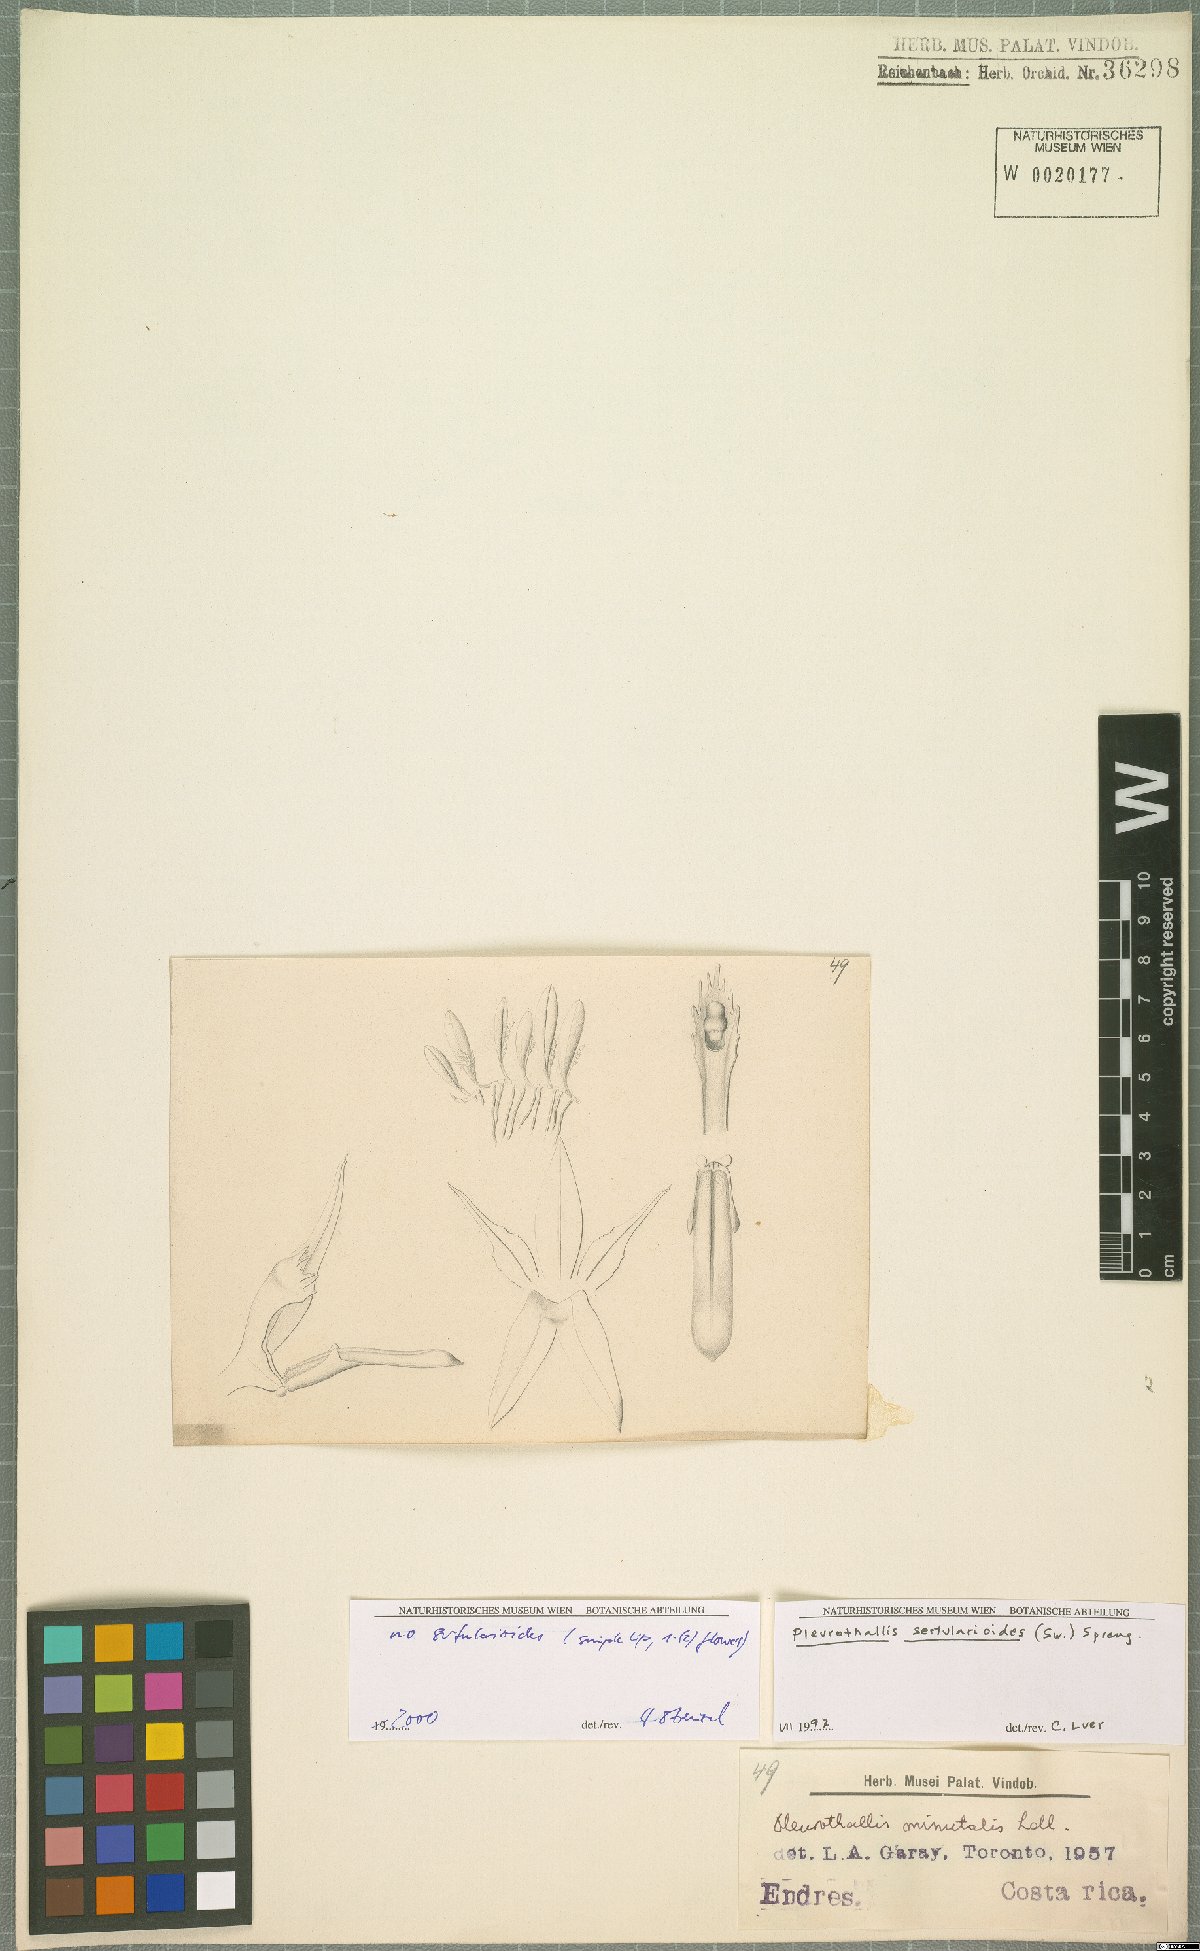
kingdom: Plantae
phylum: Tracheophyta
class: Liliopsida
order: Asparagales
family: Orchidaceae
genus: Anathallis
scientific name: Anathallis sertularioides
